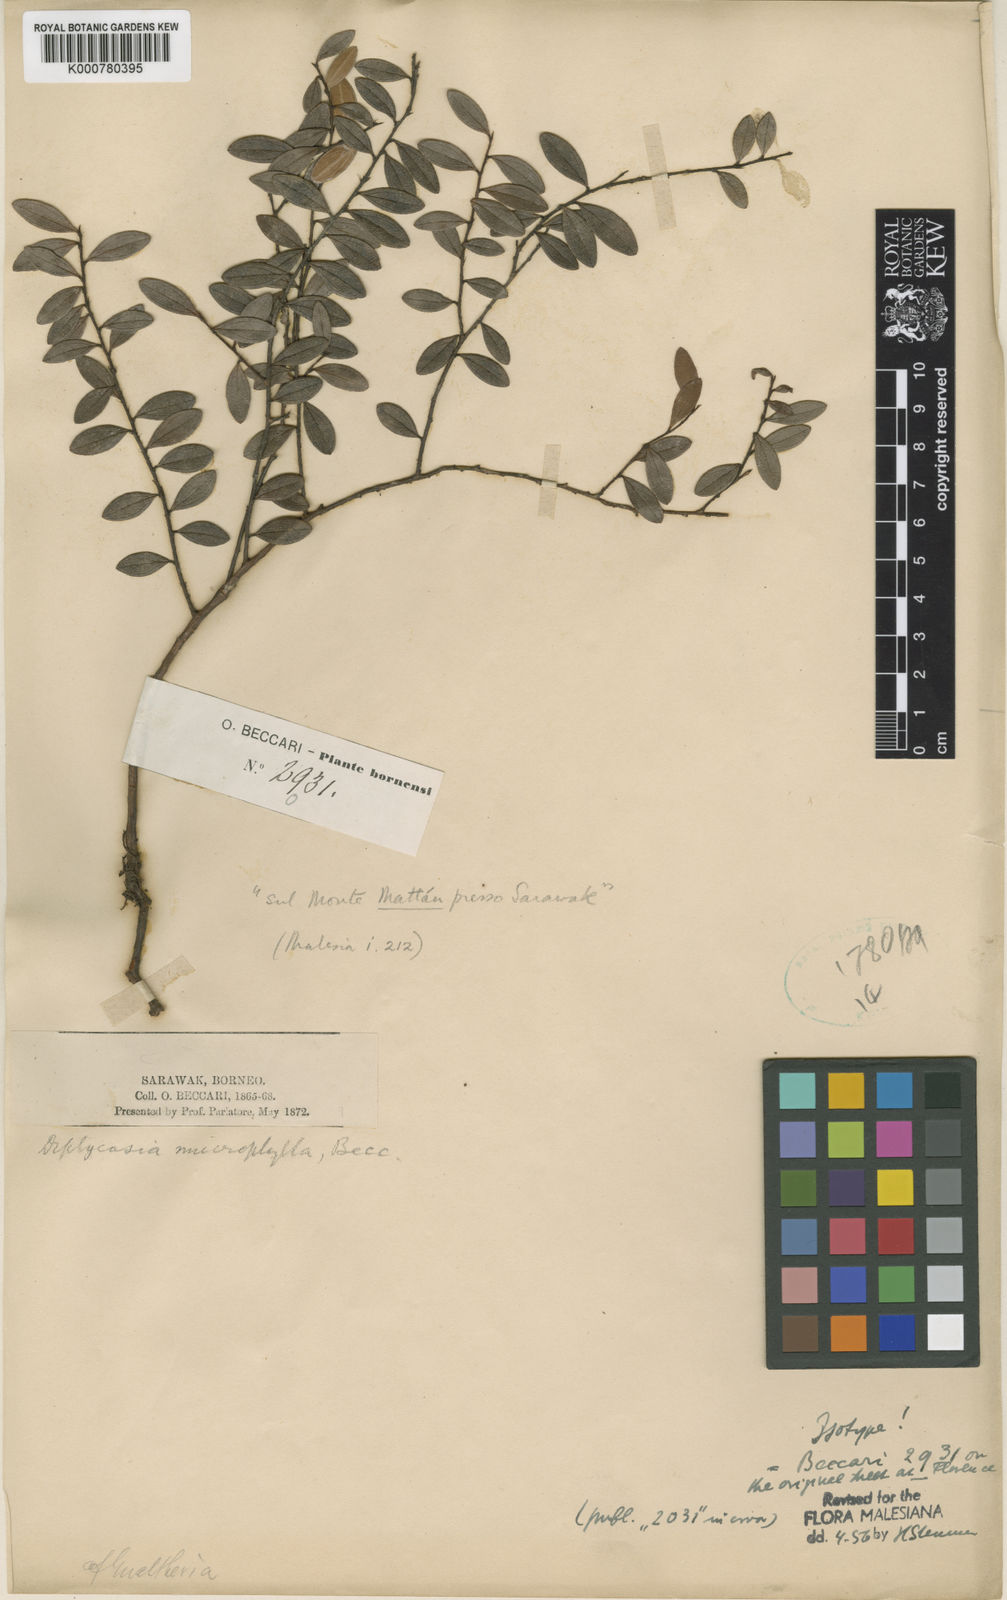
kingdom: Plantae
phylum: Tracheophyta
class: Magnoliopsida
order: Ericales
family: Ericaceae
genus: Gaultheria
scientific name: Gaultheria kingii
